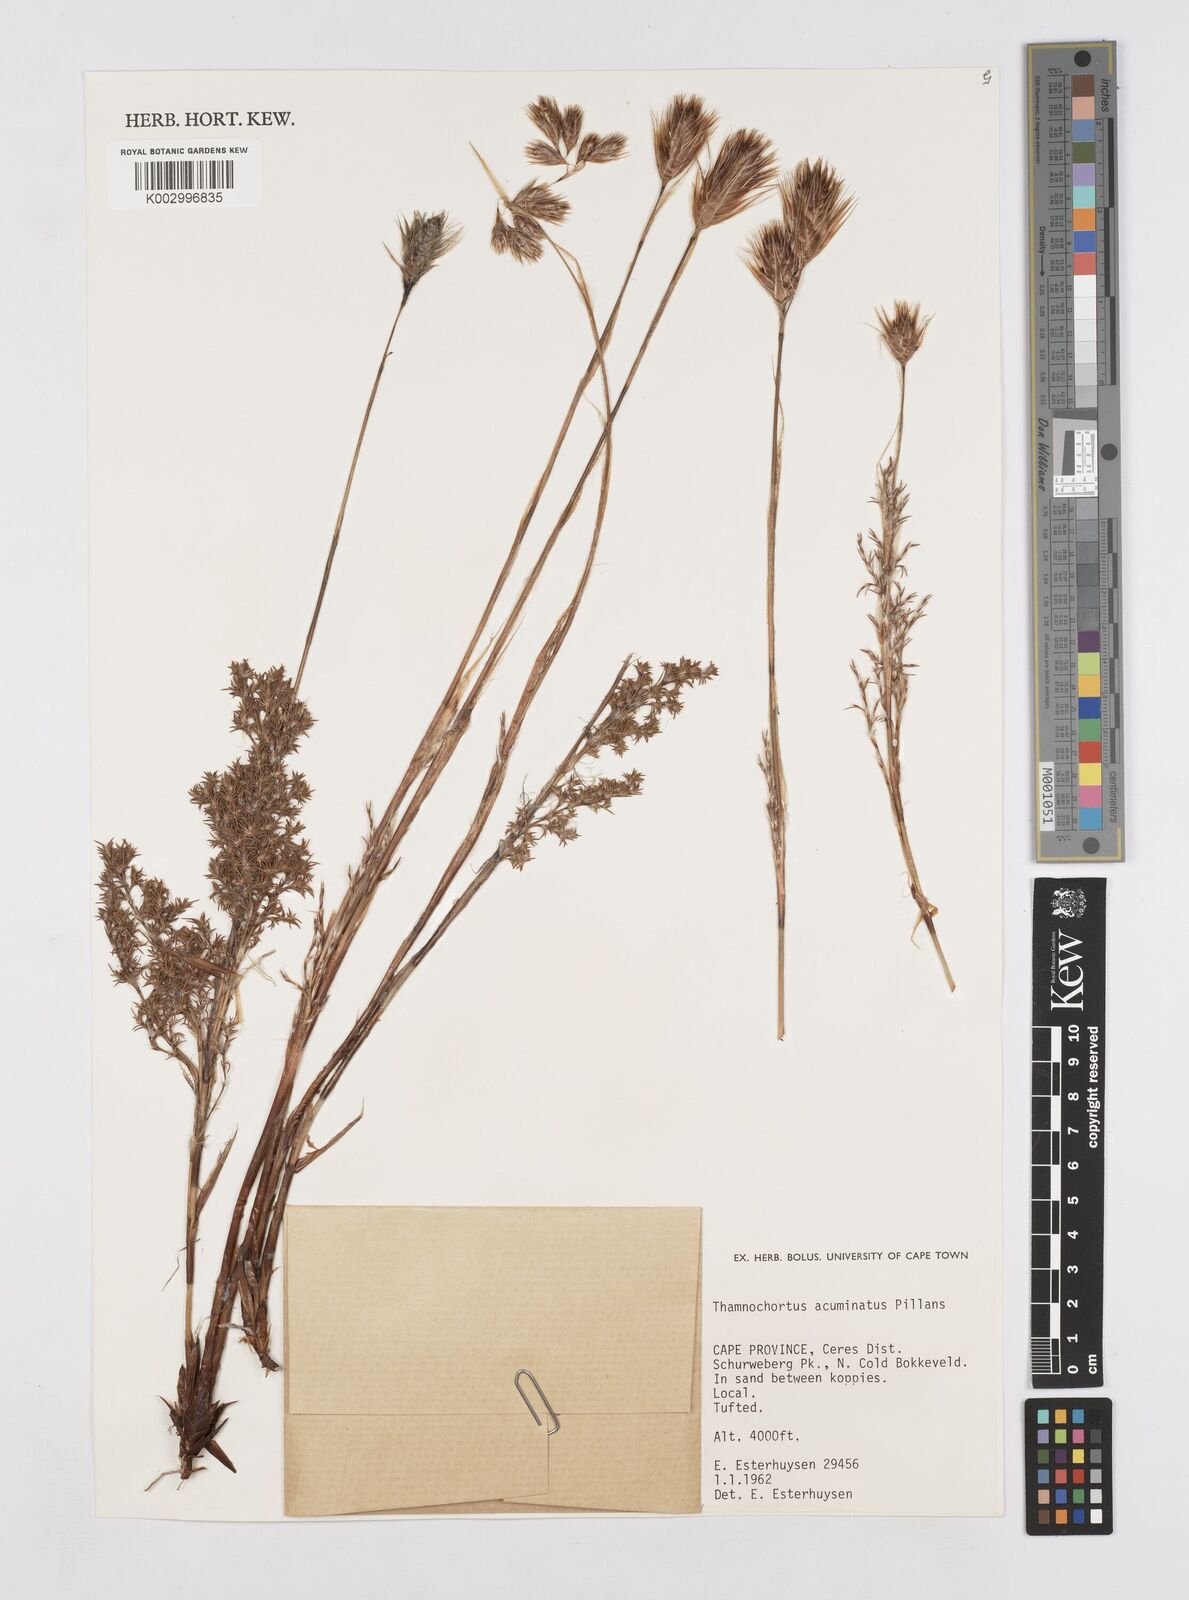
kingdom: Plantae
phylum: Tracheophyta
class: Liliopsida
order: Poales
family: Restionaceae
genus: Thamnochortus
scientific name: Thamnochortus acuminatus
